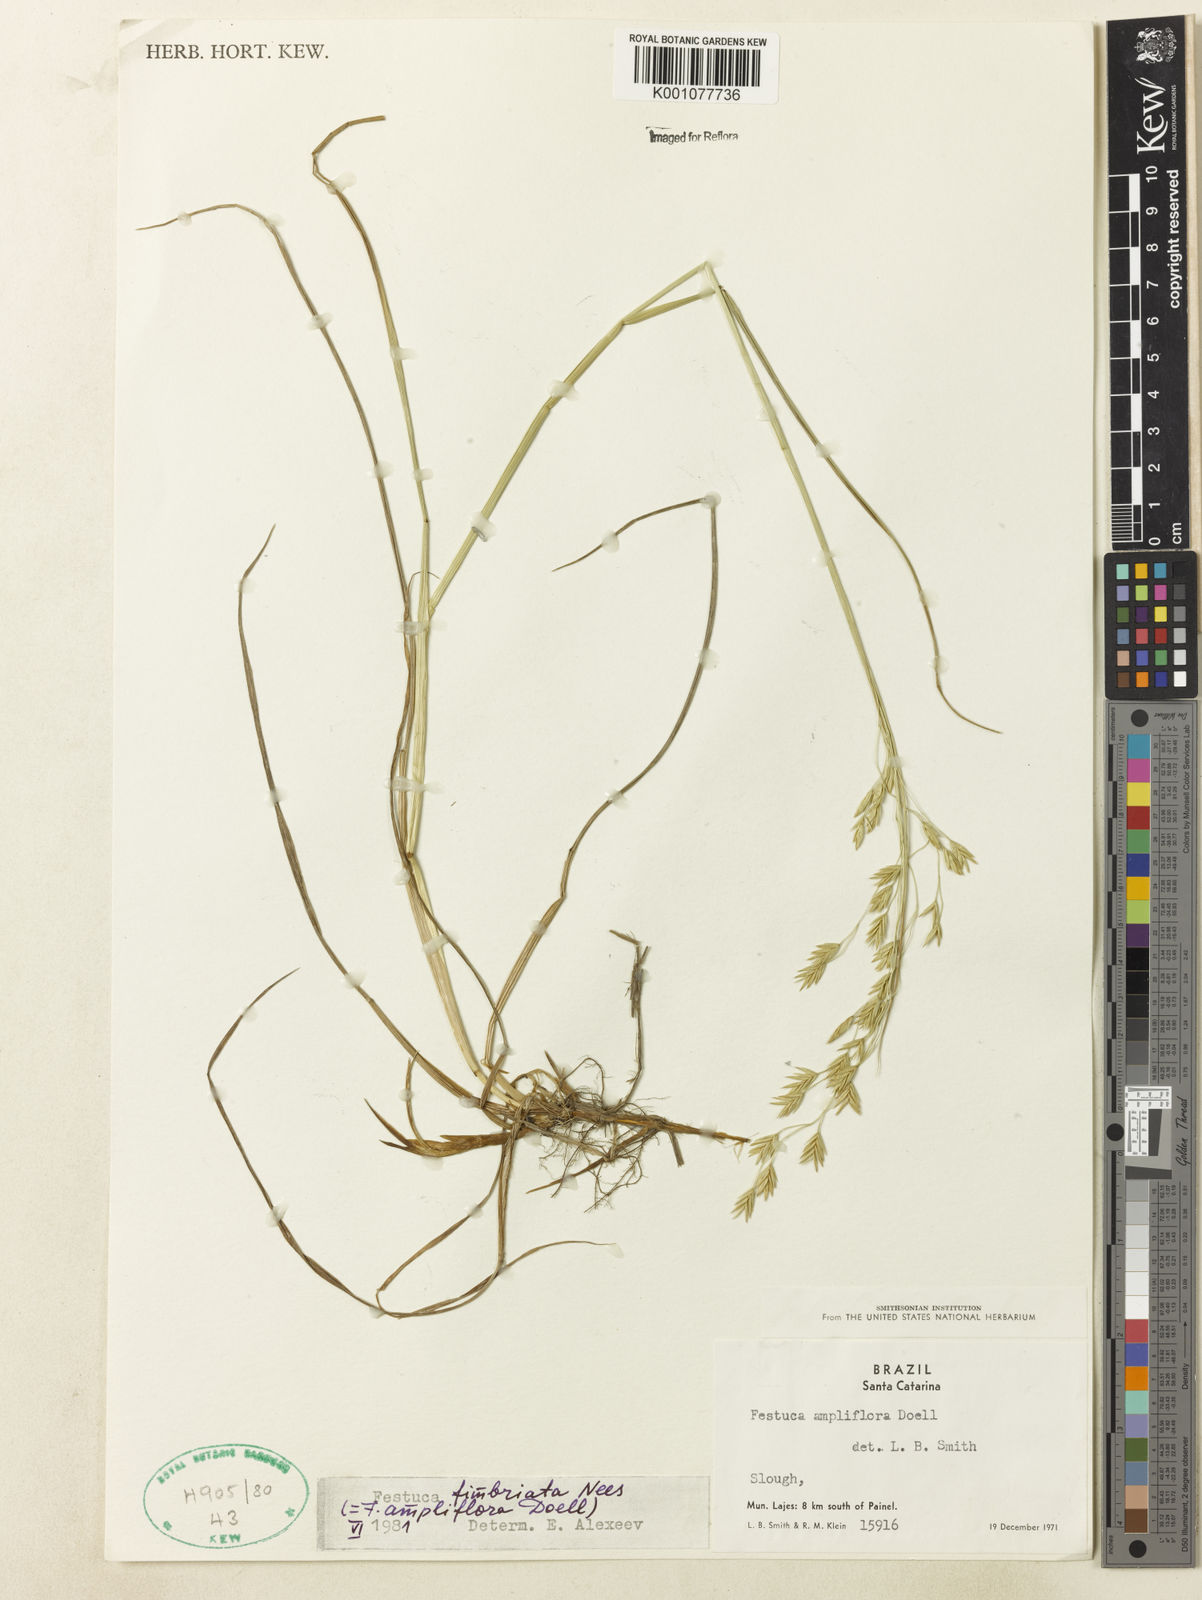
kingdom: Plantae
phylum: Tracheophyta
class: Liliopsida
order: Poales
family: Poaceae
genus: Festuca
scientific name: Festuca fimbriata
